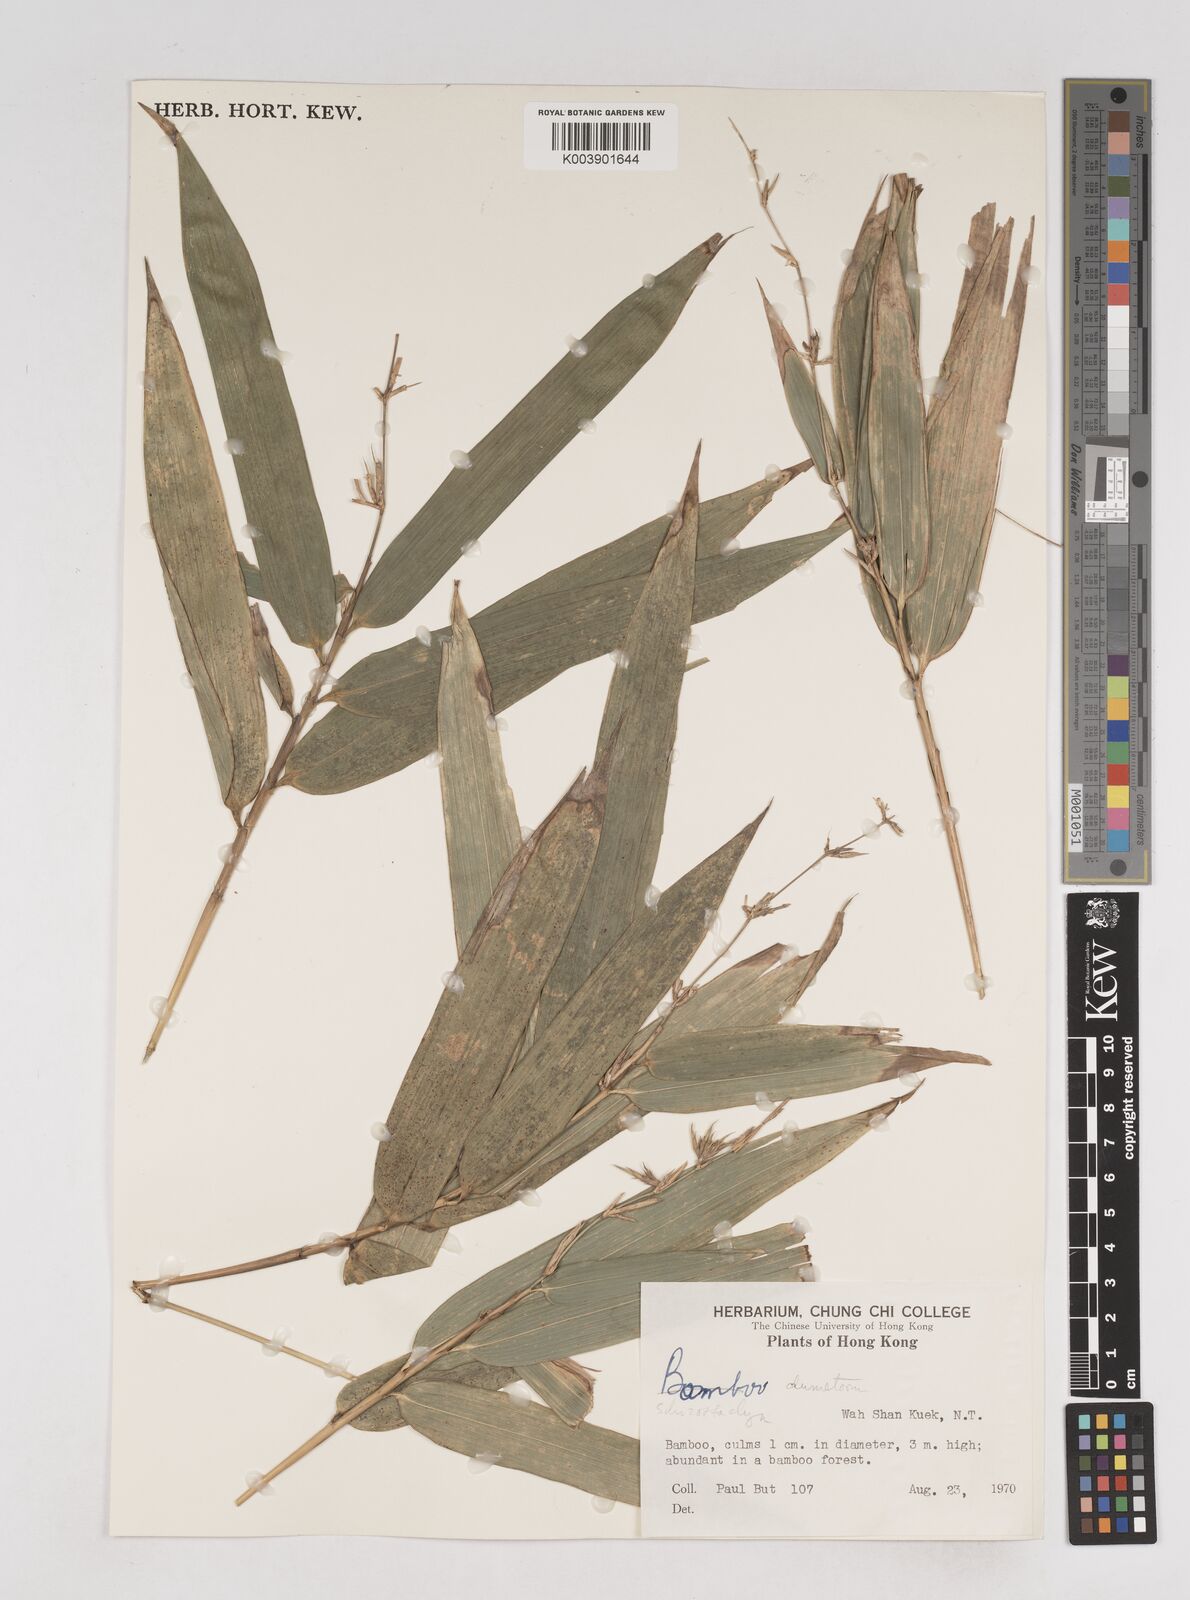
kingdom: Plantae
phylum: Tracheophyta
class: Liliopsida
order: Poales
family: Poaceae
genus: Schizostachyum
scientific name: Schizostachyum dumetorum
